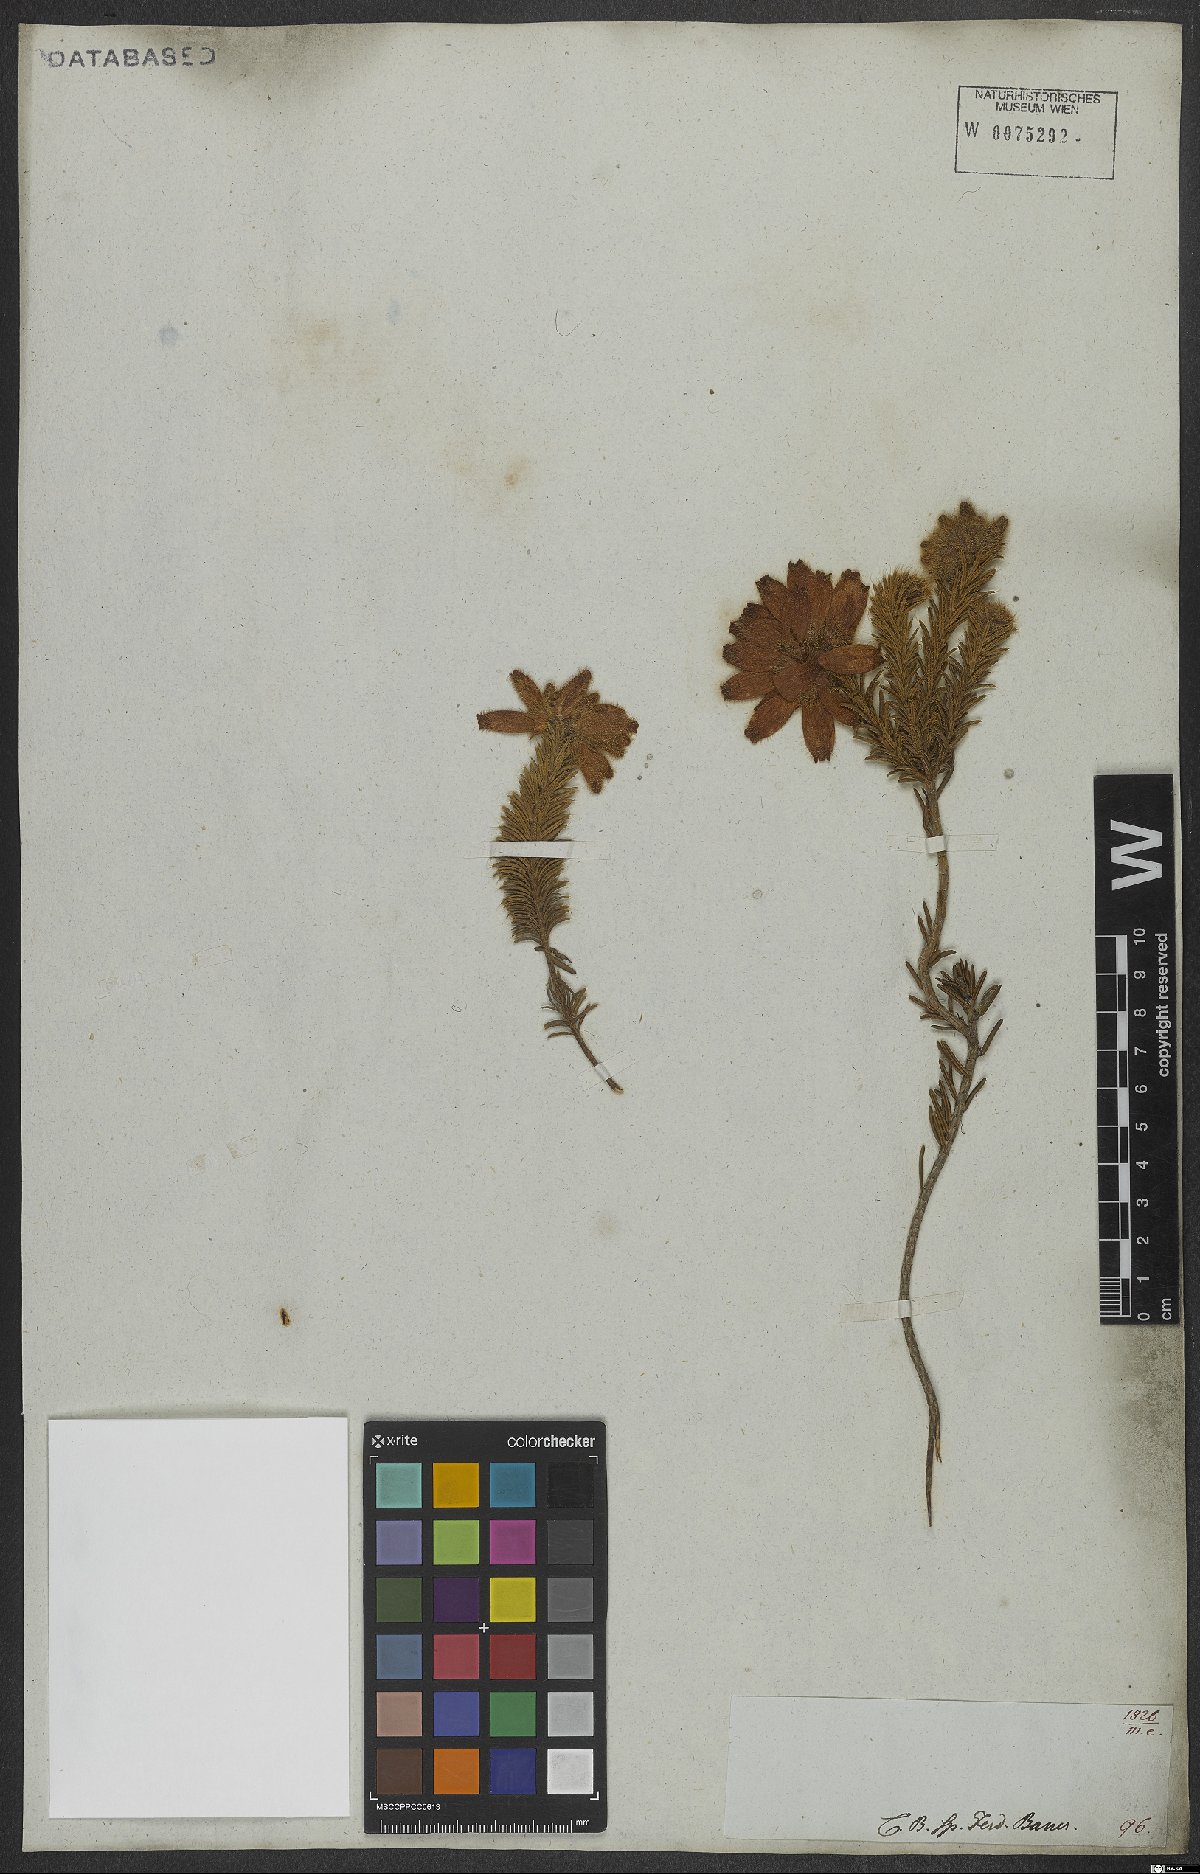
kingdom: Plantae
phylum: Tracheophyta
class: Magnoliopsida
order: Ericales
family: Ericaceae
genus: Erica
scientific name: Erica cerinthoides
